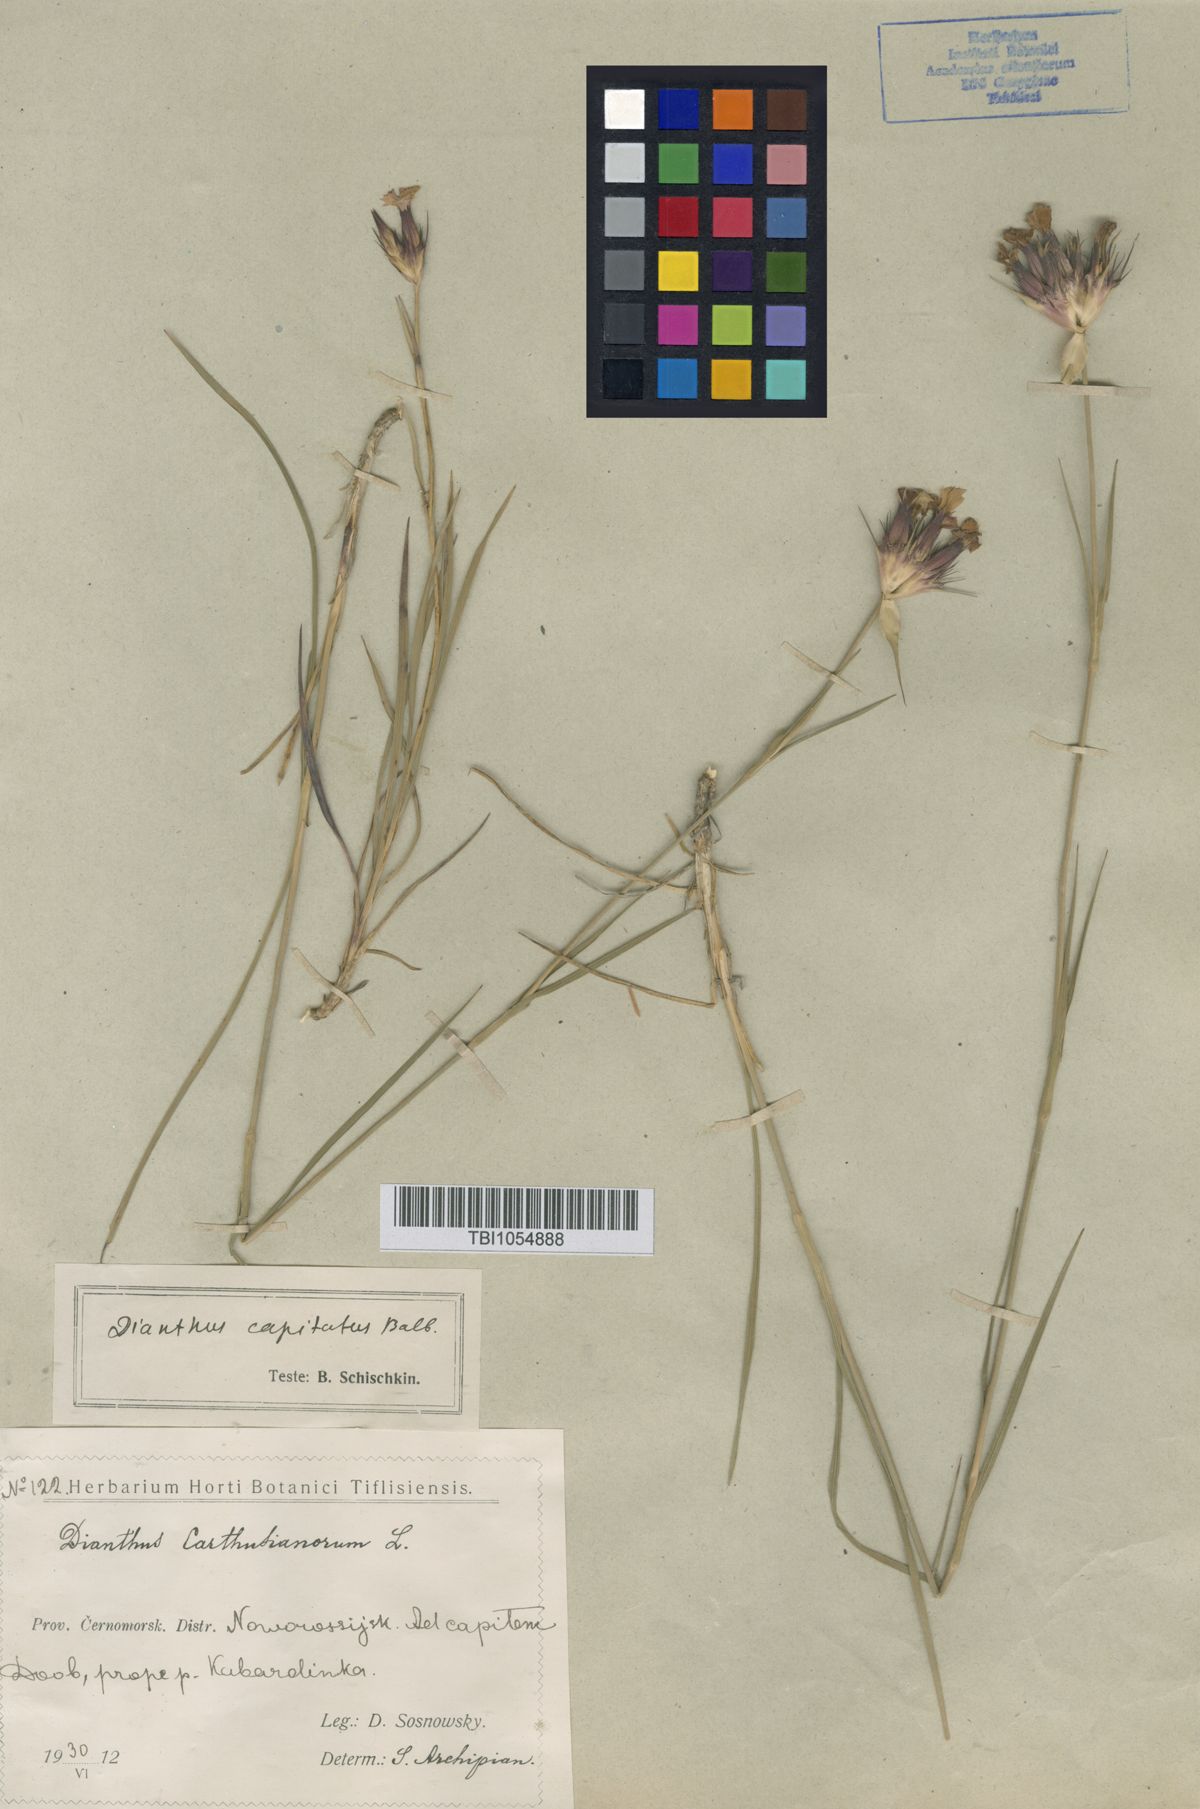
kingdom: Plantae
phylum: Tracheophyta
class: Magnoliopsida
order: Caryophyllales
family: Caryophyllaceae
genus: Dianthus
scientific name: Dianthus capitatus
